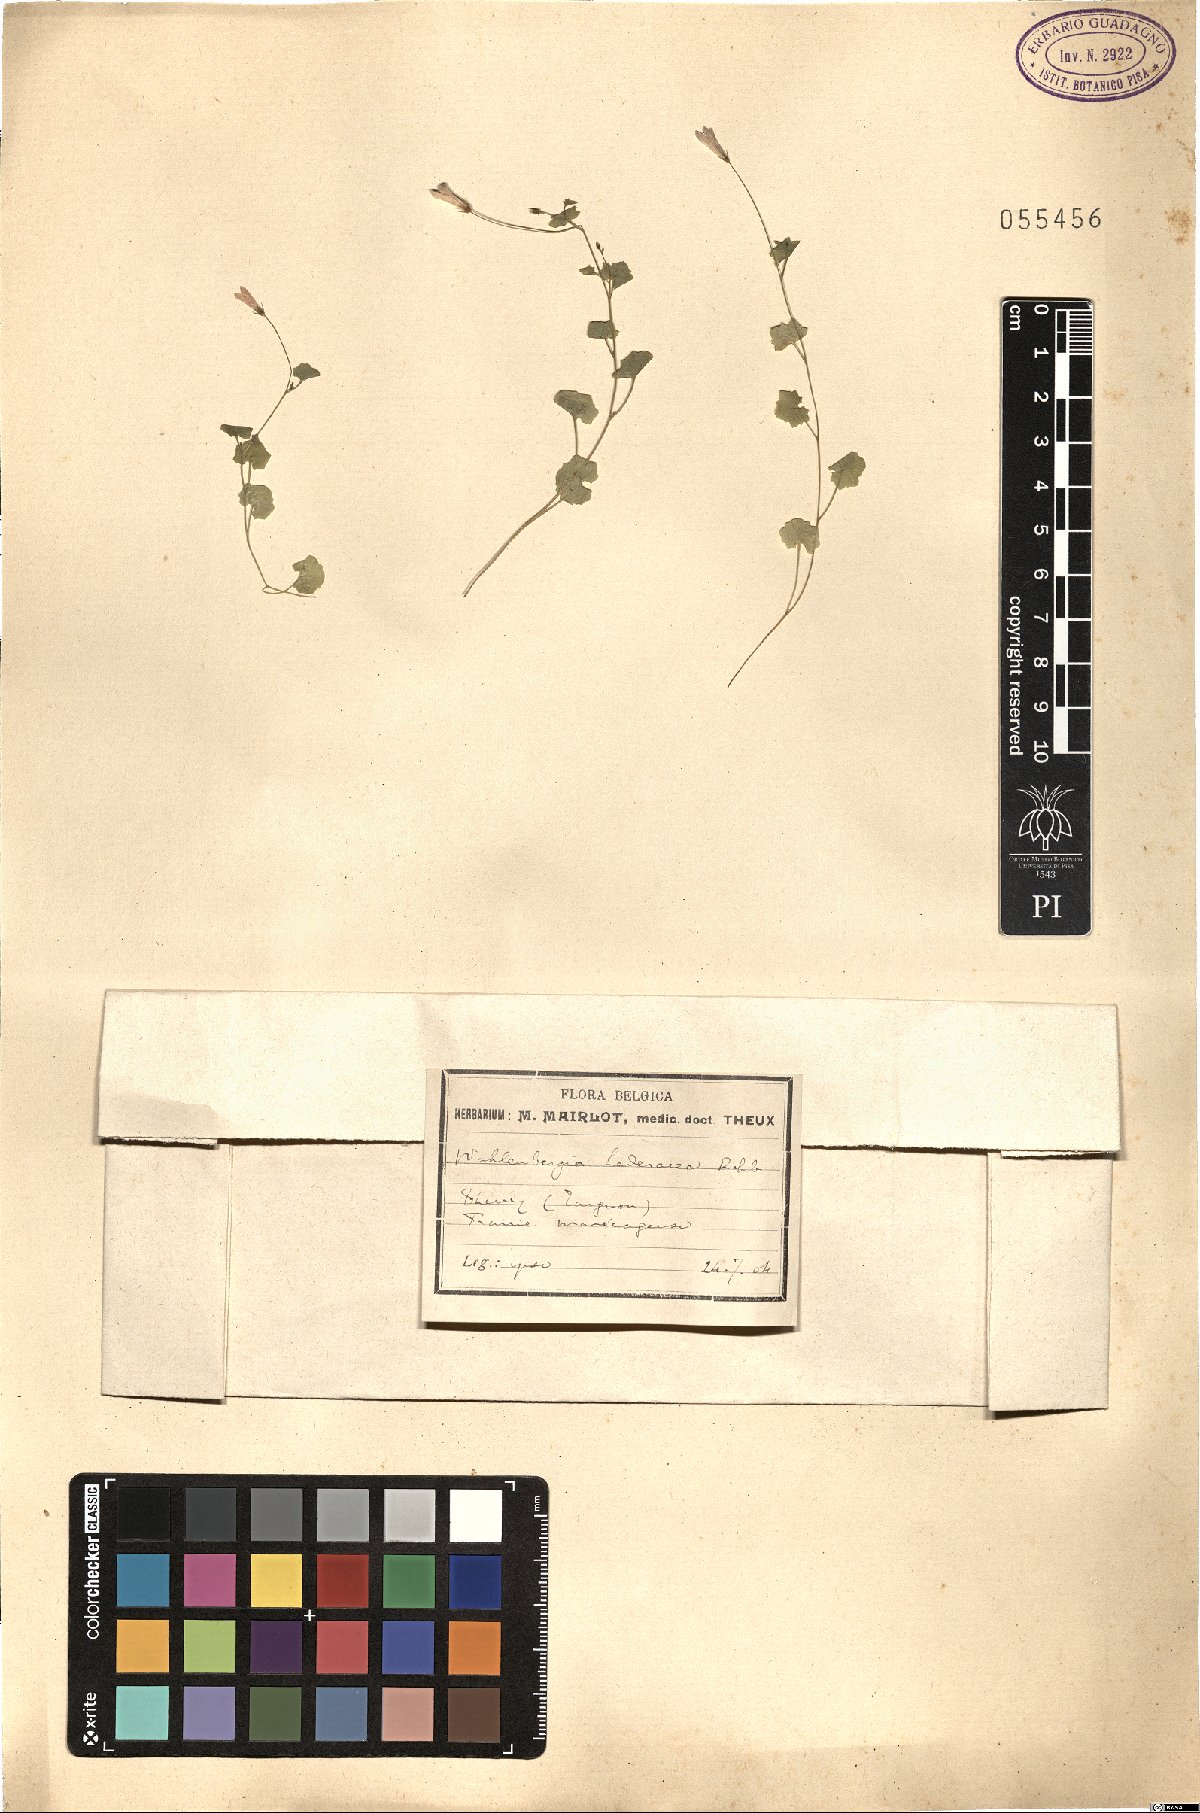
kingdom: Plantae
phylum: Tracheophyta
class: Magnoliopsida
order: Asterales
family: Campanulaceae
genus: Hesperocodon
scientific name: Hesperocodon hederaceus
